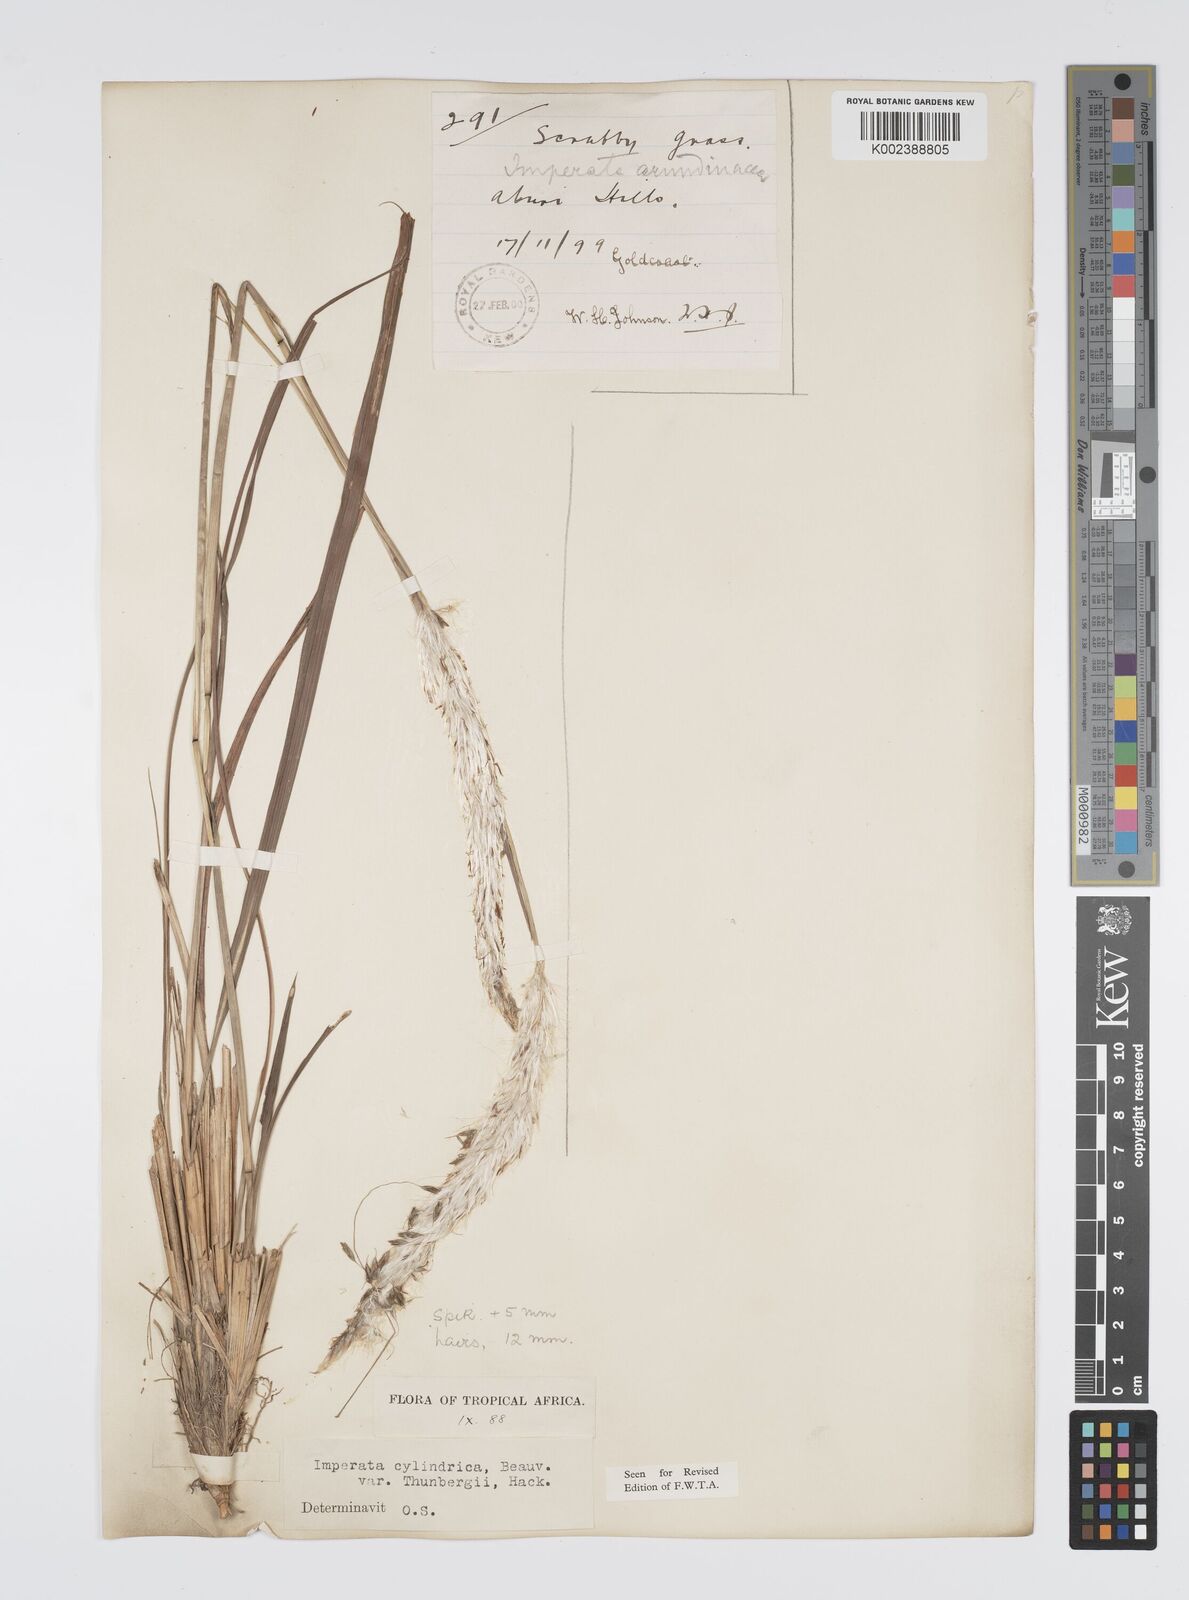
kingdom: Plantae
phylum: Tracheophyta
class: Liliopsida
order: Poales
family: Poaceae
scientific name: Poaceae
